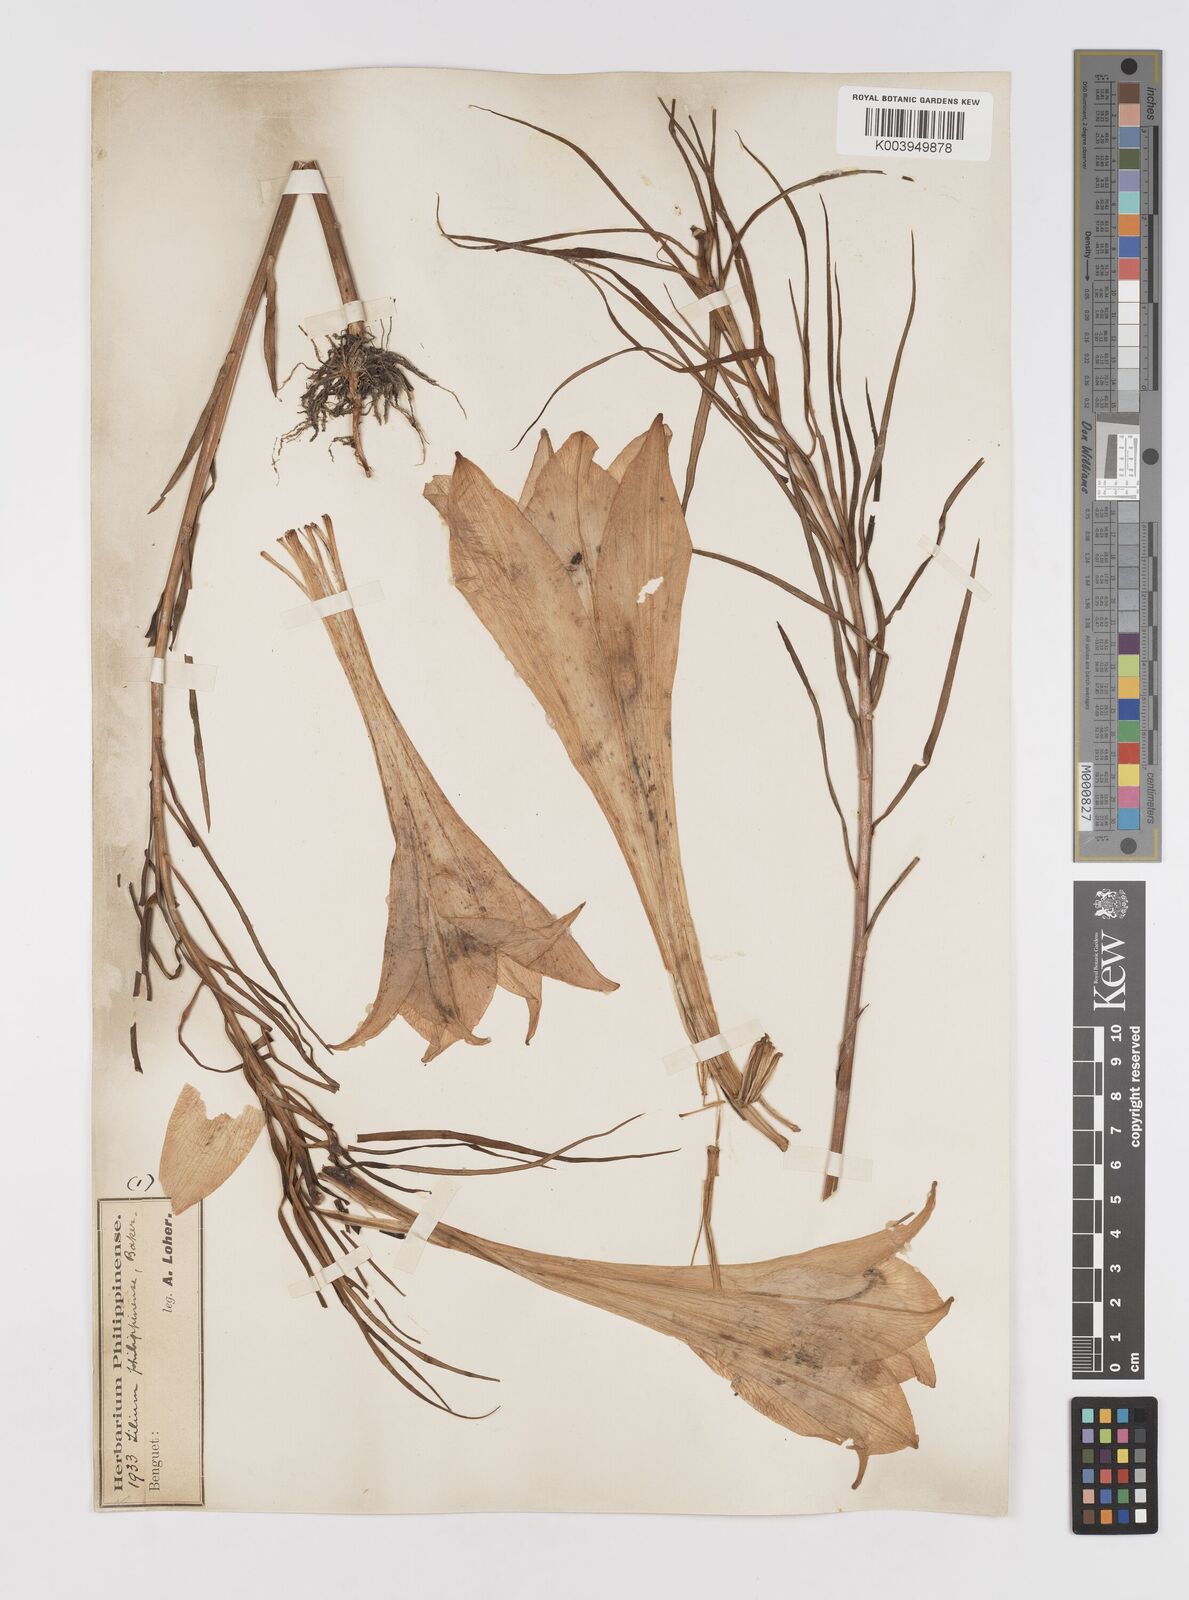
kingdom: Plantae
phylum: Tracheophyta
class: Liliopsida
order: Liliales
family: Liliaceae
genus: Lilium
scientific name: Lilium philippinense
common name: Philippine lily
